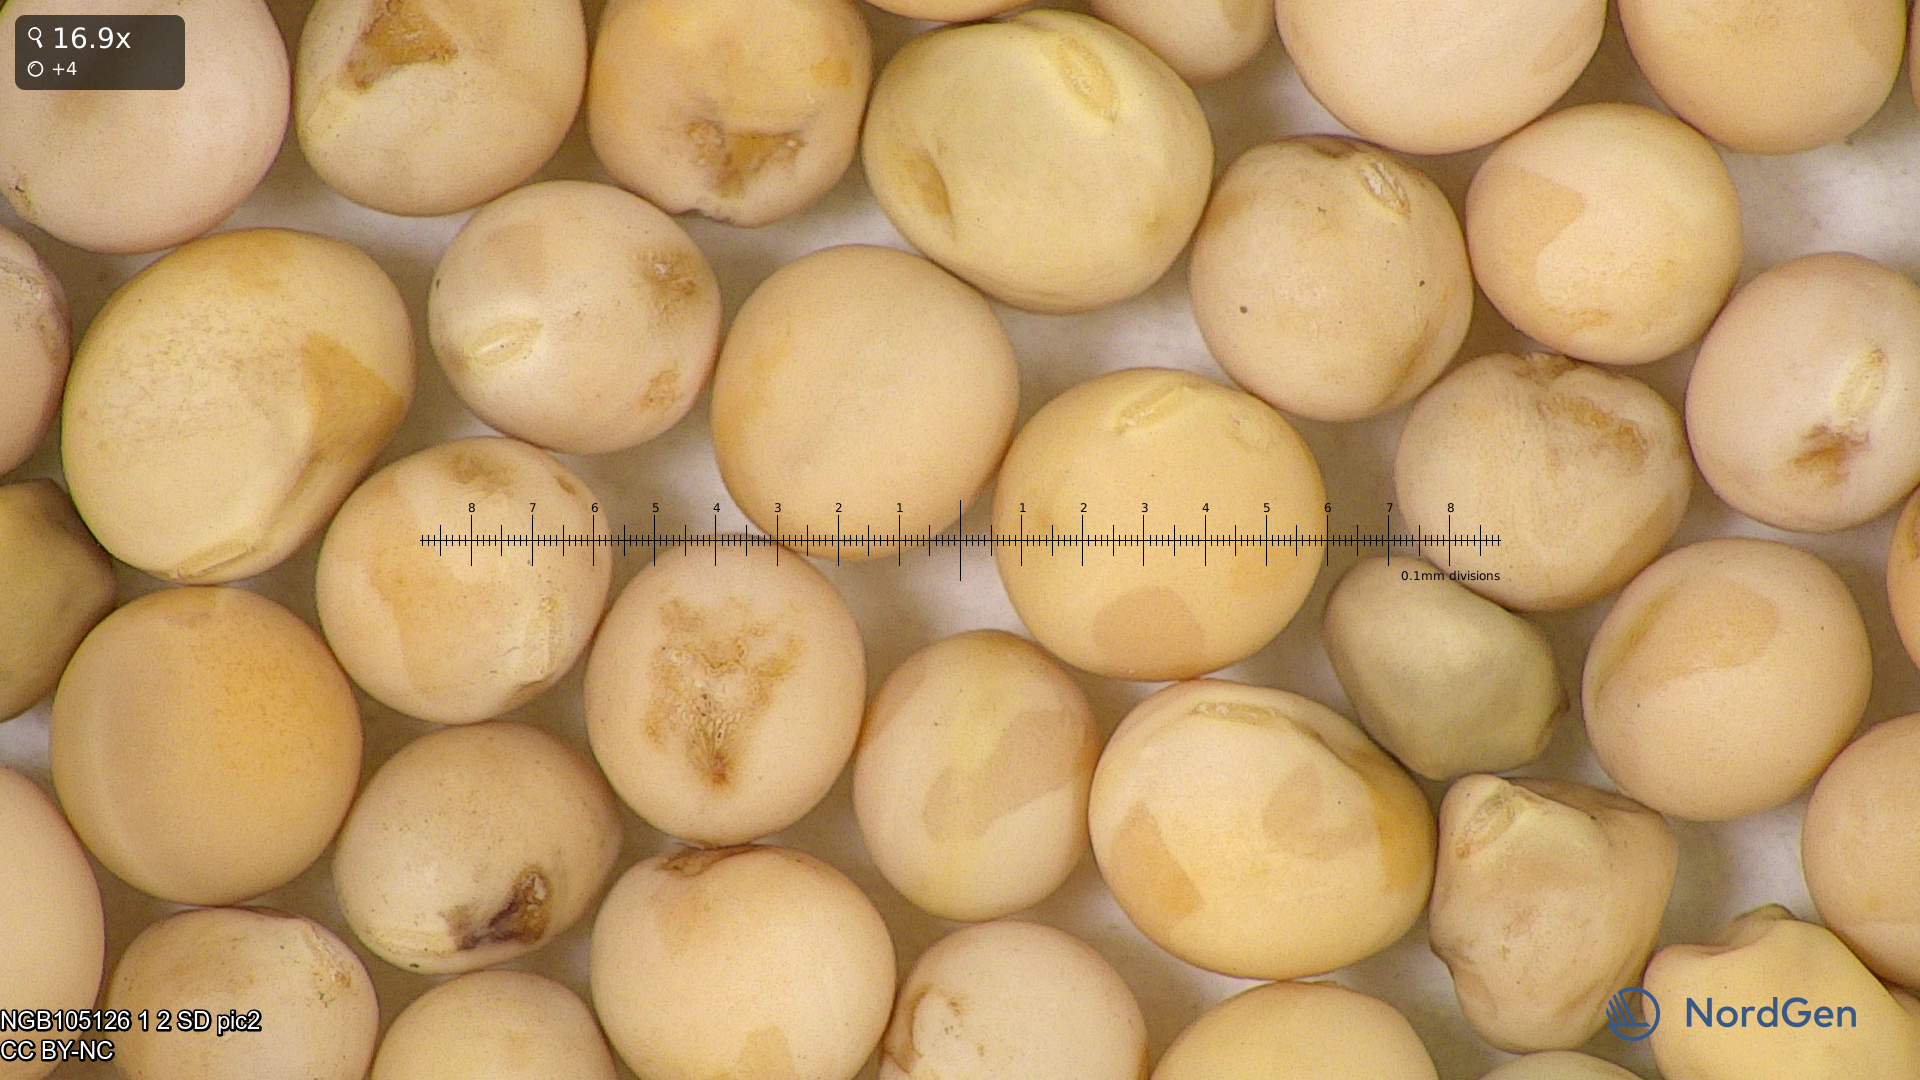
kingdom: Plantae
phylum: Tracheophyta
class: Magnoliopsida
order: Fabales
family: Fabaceae
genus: Lathyrus
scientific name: Lathyrus oleraceus
